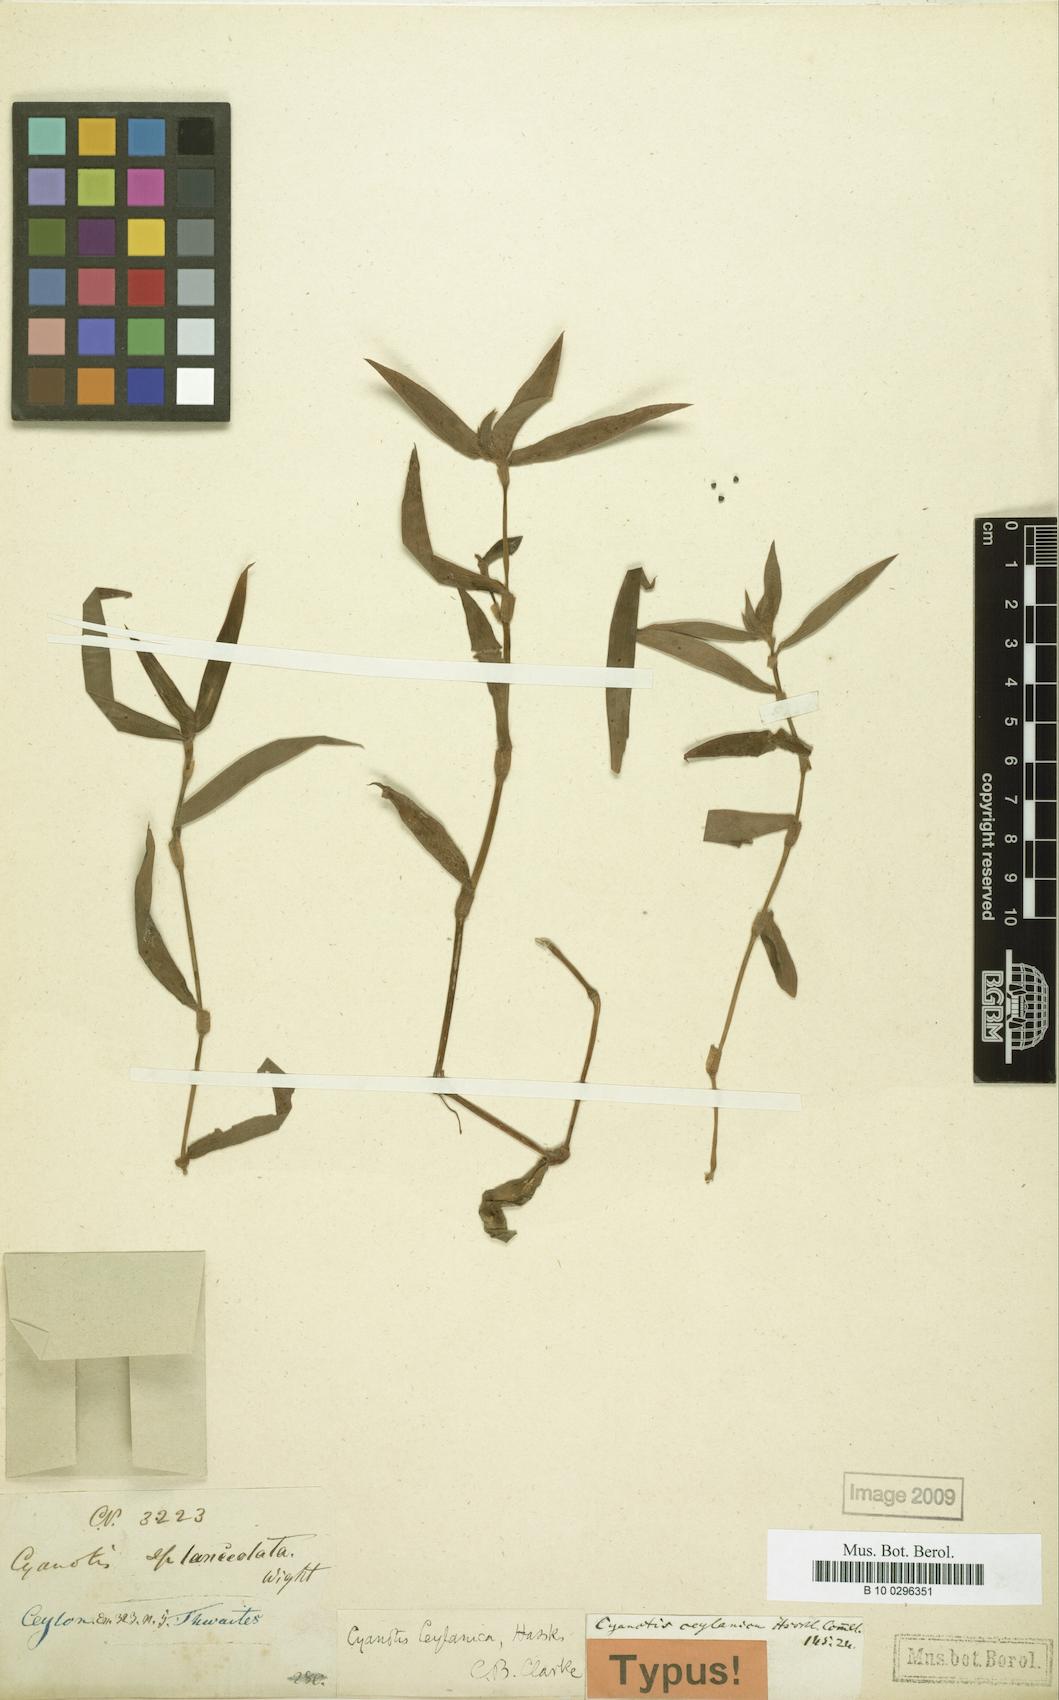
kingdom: Plantae
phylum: Tracheophyta
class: Liliopsida
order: Commelinales
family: Commelinaceae
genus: Cyanotis
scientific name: Cyanotis ceylanica
